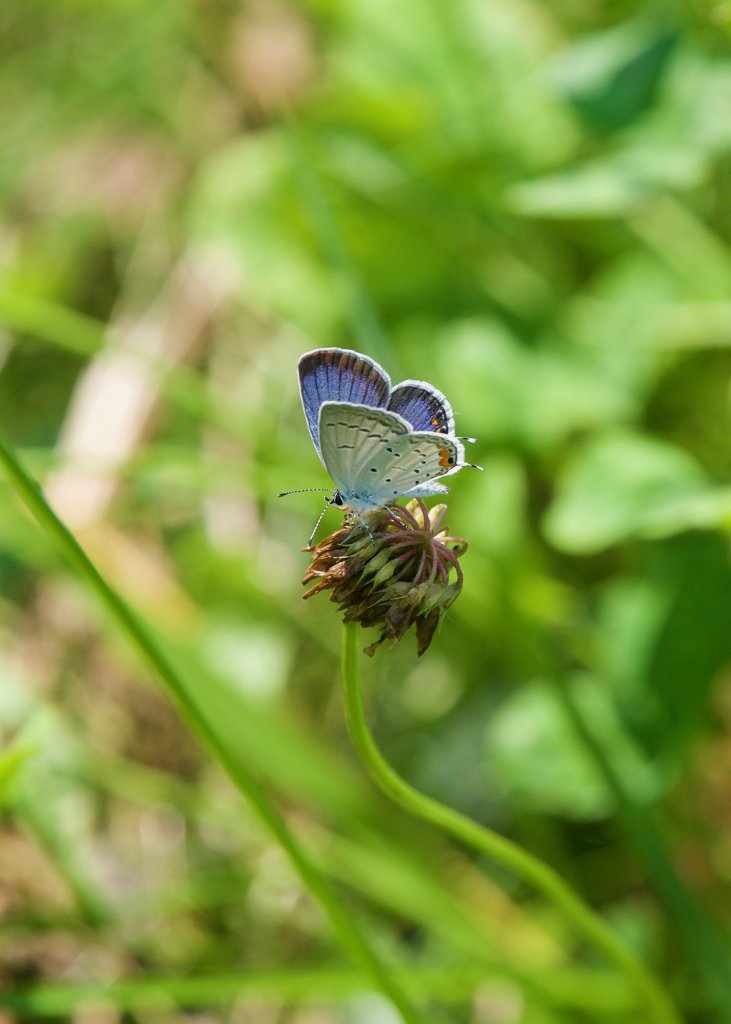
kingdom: Animalia
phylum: Arthropoda
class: Insecta
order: Lepidoptera
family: Lycaenidae
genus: Elkalyce
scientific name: Elkalyce comyntas
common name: Eastern Tailed-Blue
